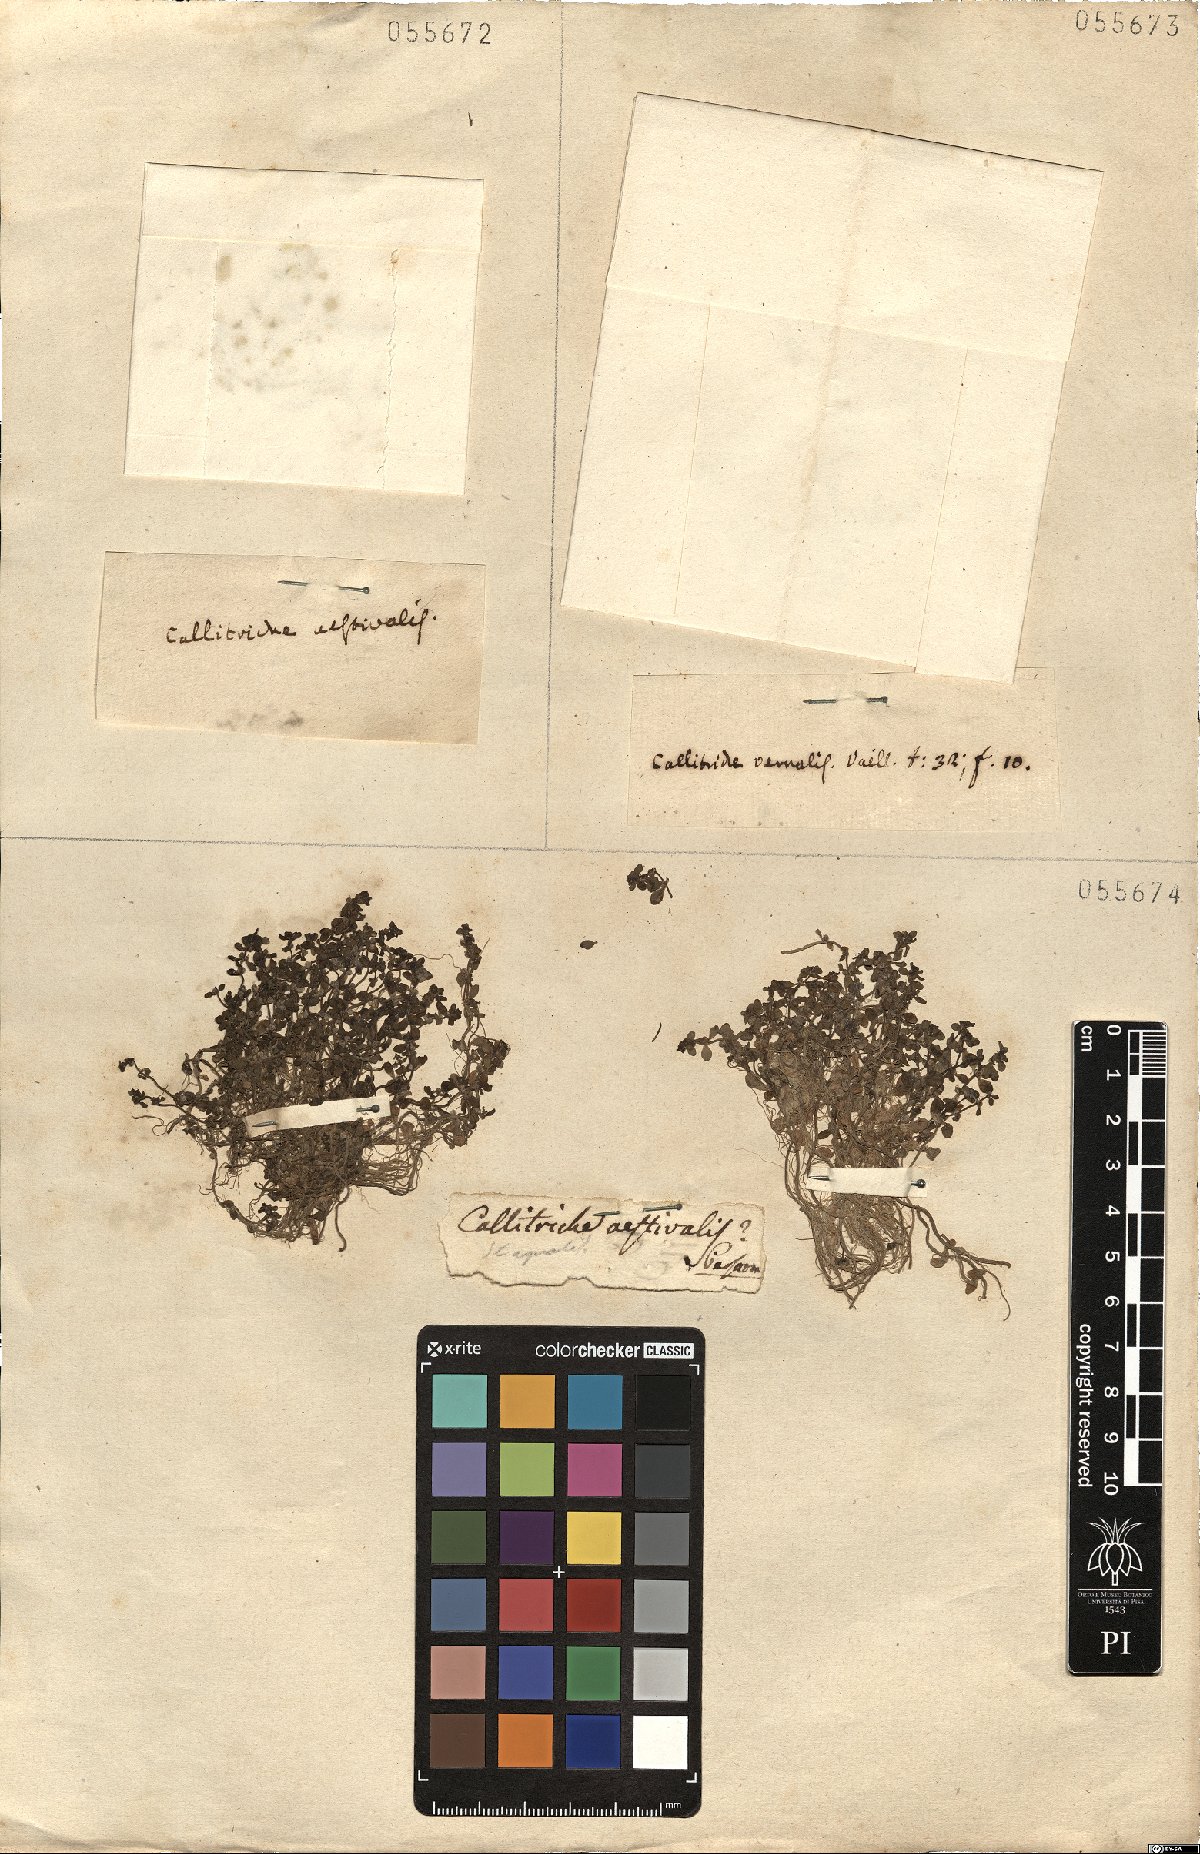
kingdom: Plantae
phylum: Tracheophyta
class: Magnoliopsida
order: Lamiales
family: Plantaginaceae
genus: Callitriche
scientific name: Callitriche stagnalis
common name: Common water-starwort
